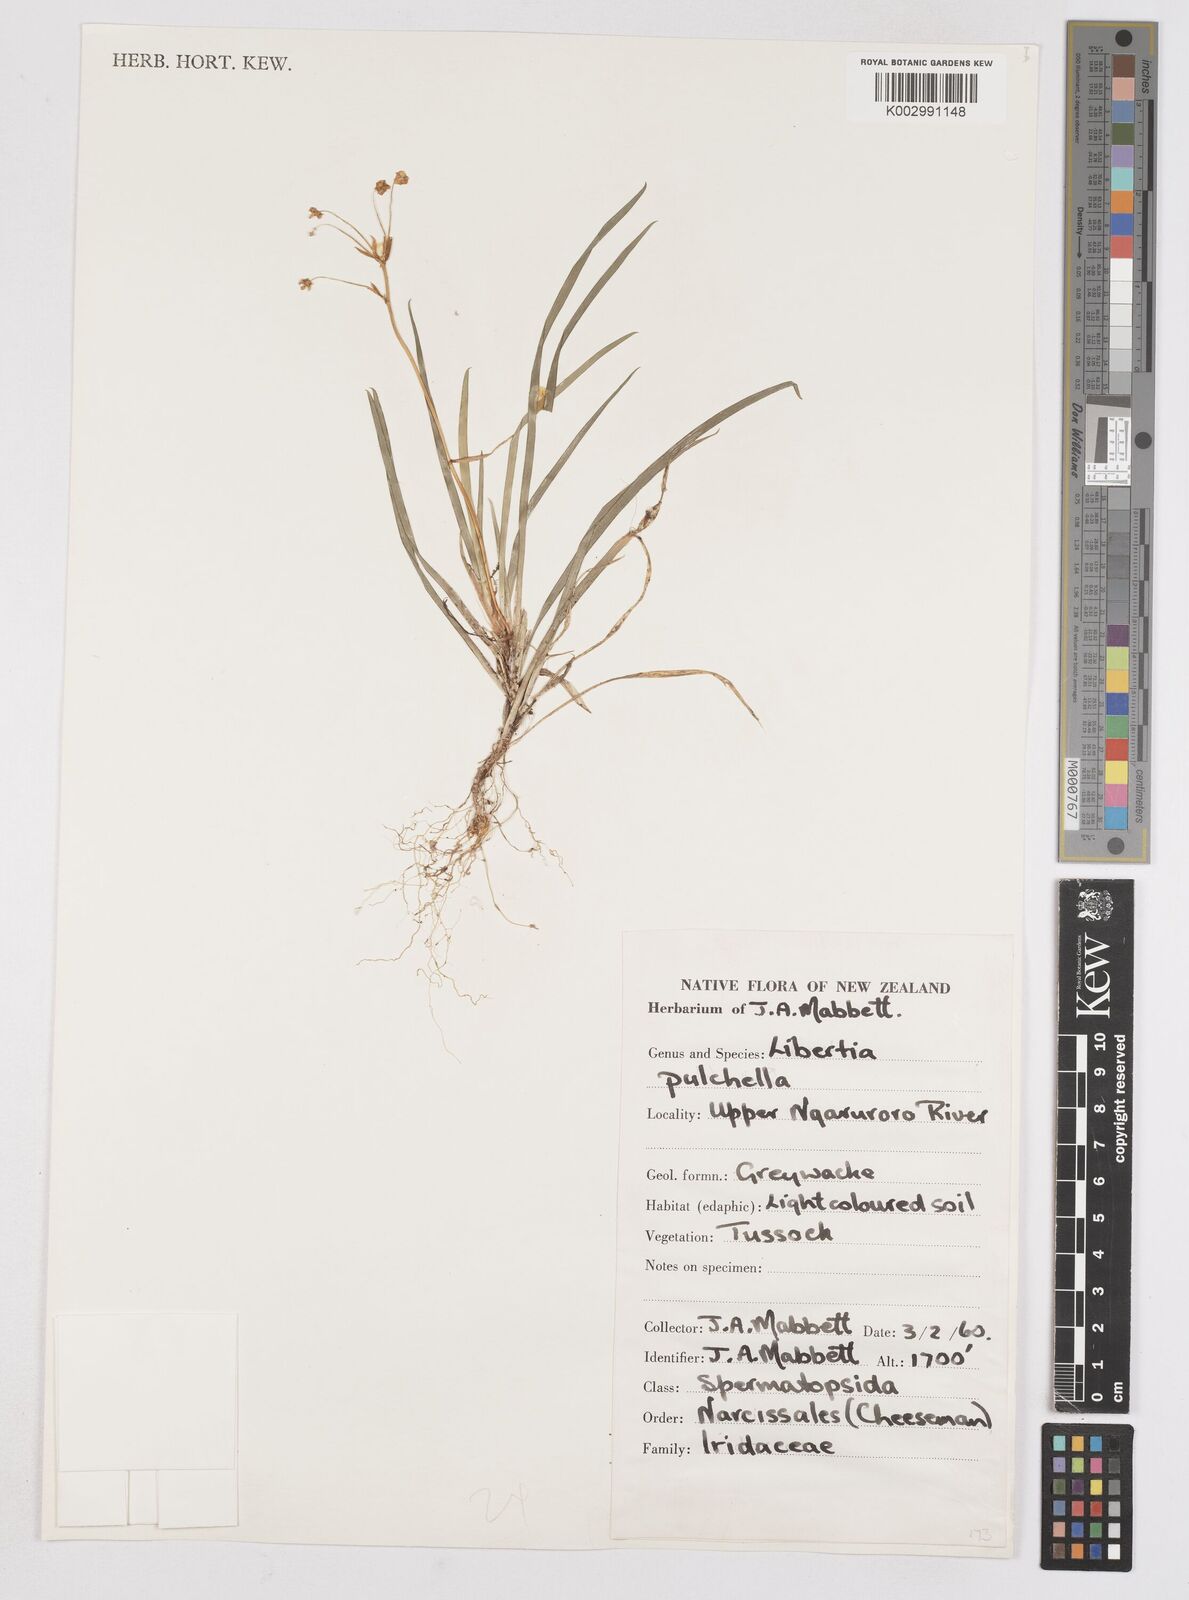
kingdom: Plantae
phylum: Tracheophyta
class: Liliopsida
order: Asparagales
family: Iridaceae
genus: Libertia
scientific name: Libertia pulchella
